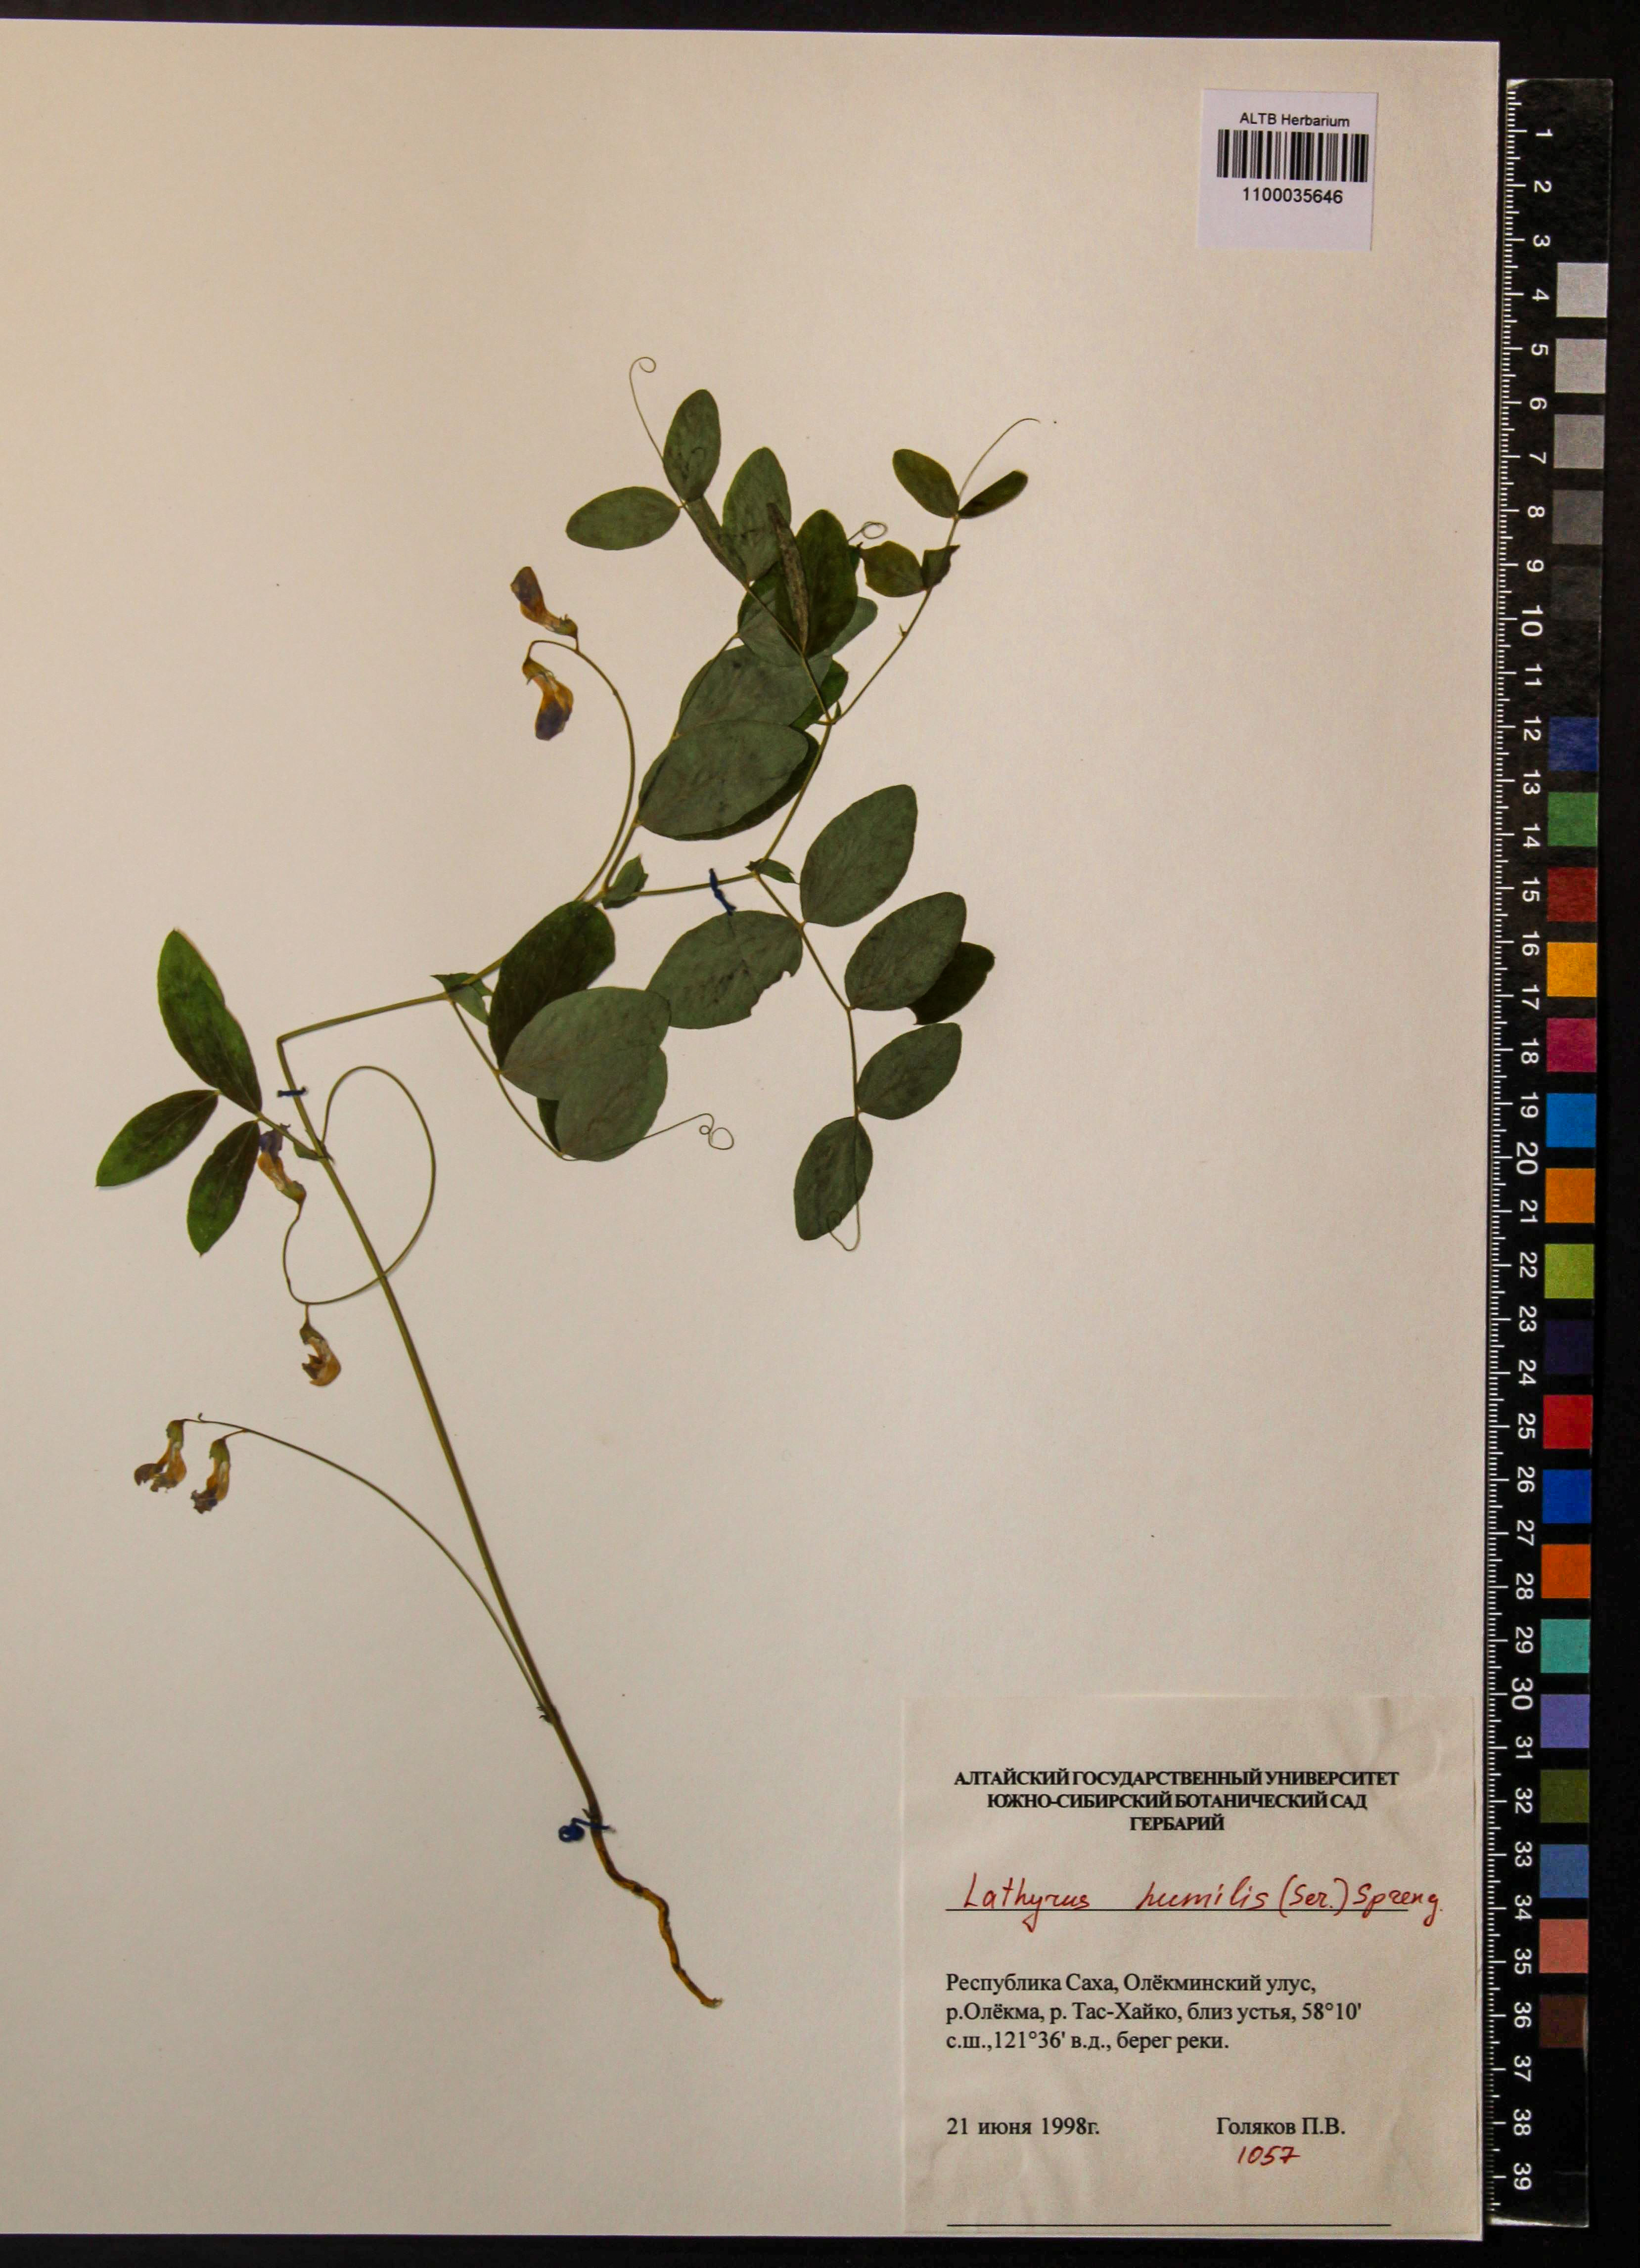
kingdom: Plantae
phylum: Tracheophyta
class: Magnoliopsida
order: Fabales
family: Fabaceae
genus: Lathyrus
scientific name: Lathyrus humilis
